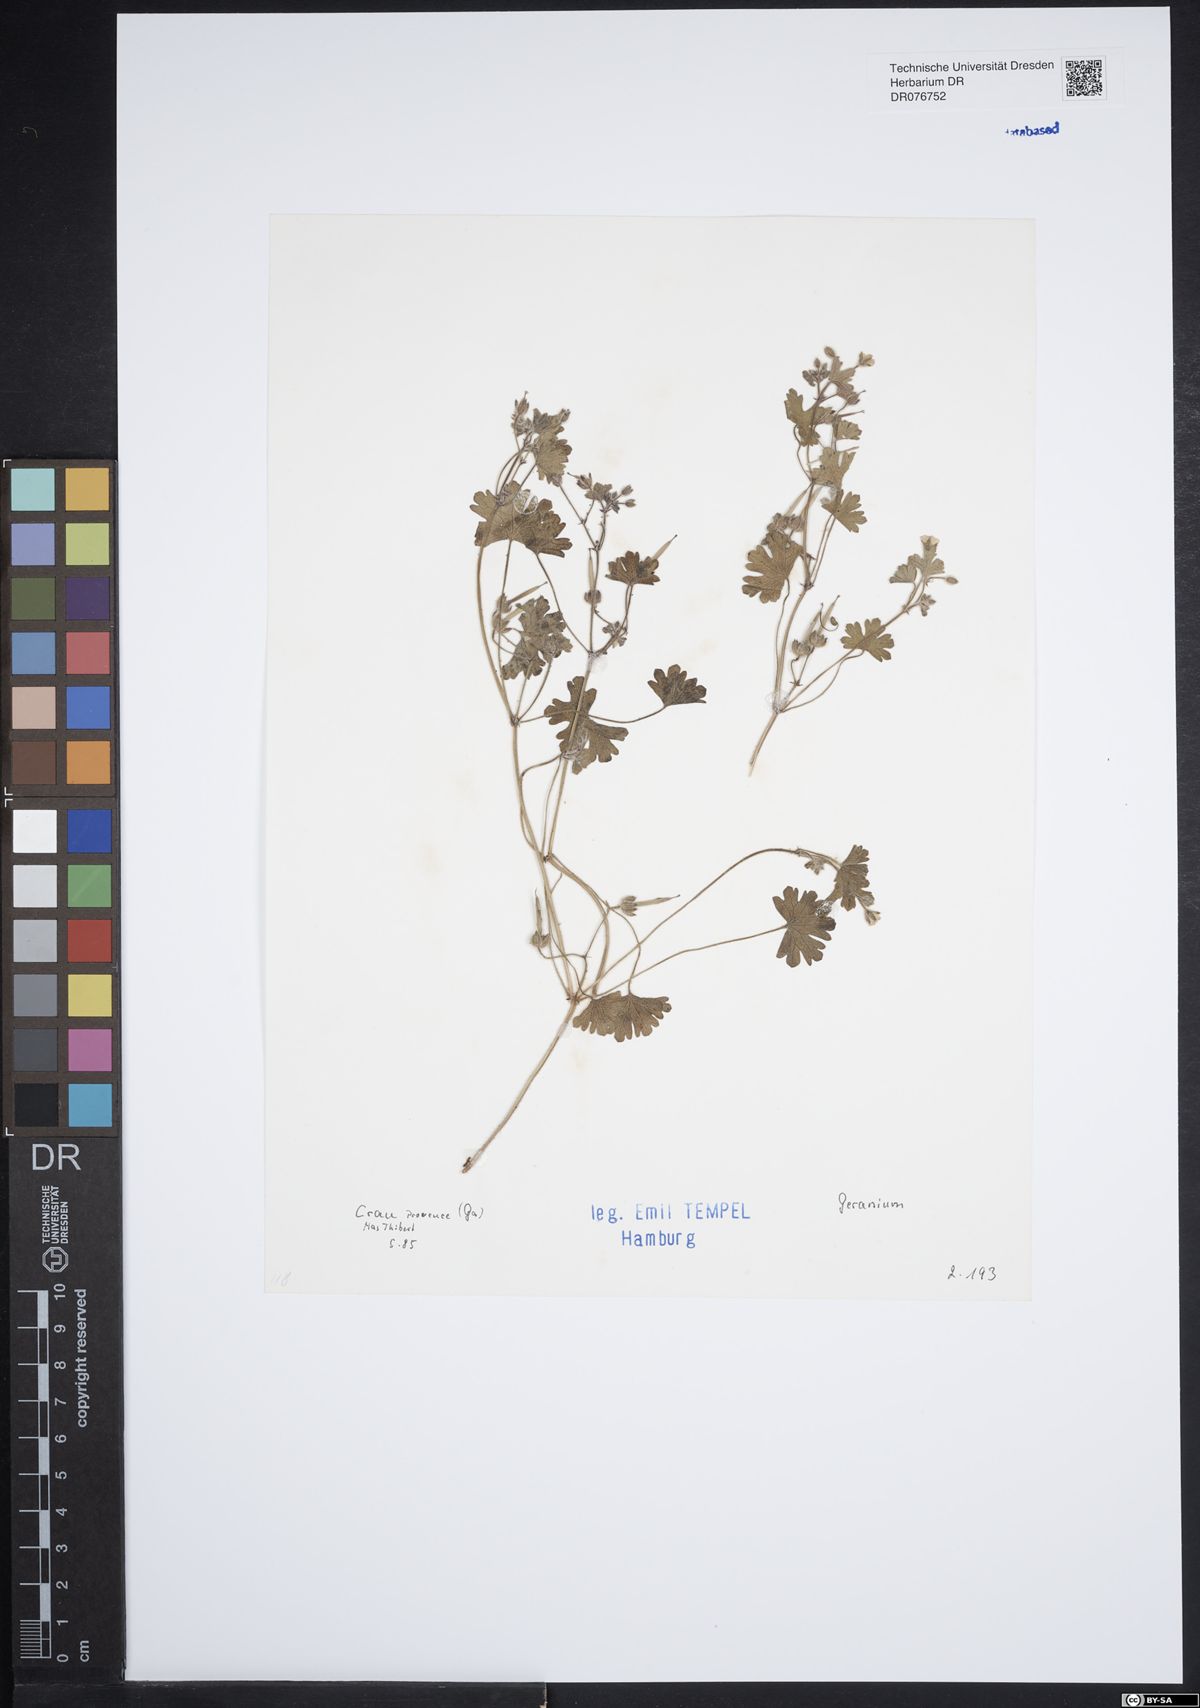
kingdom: Plantae
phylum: Tracheophyta
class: Magnoliopsida
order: Geraniales
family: Geraniaceae
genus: Geranium
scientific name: Geranium
